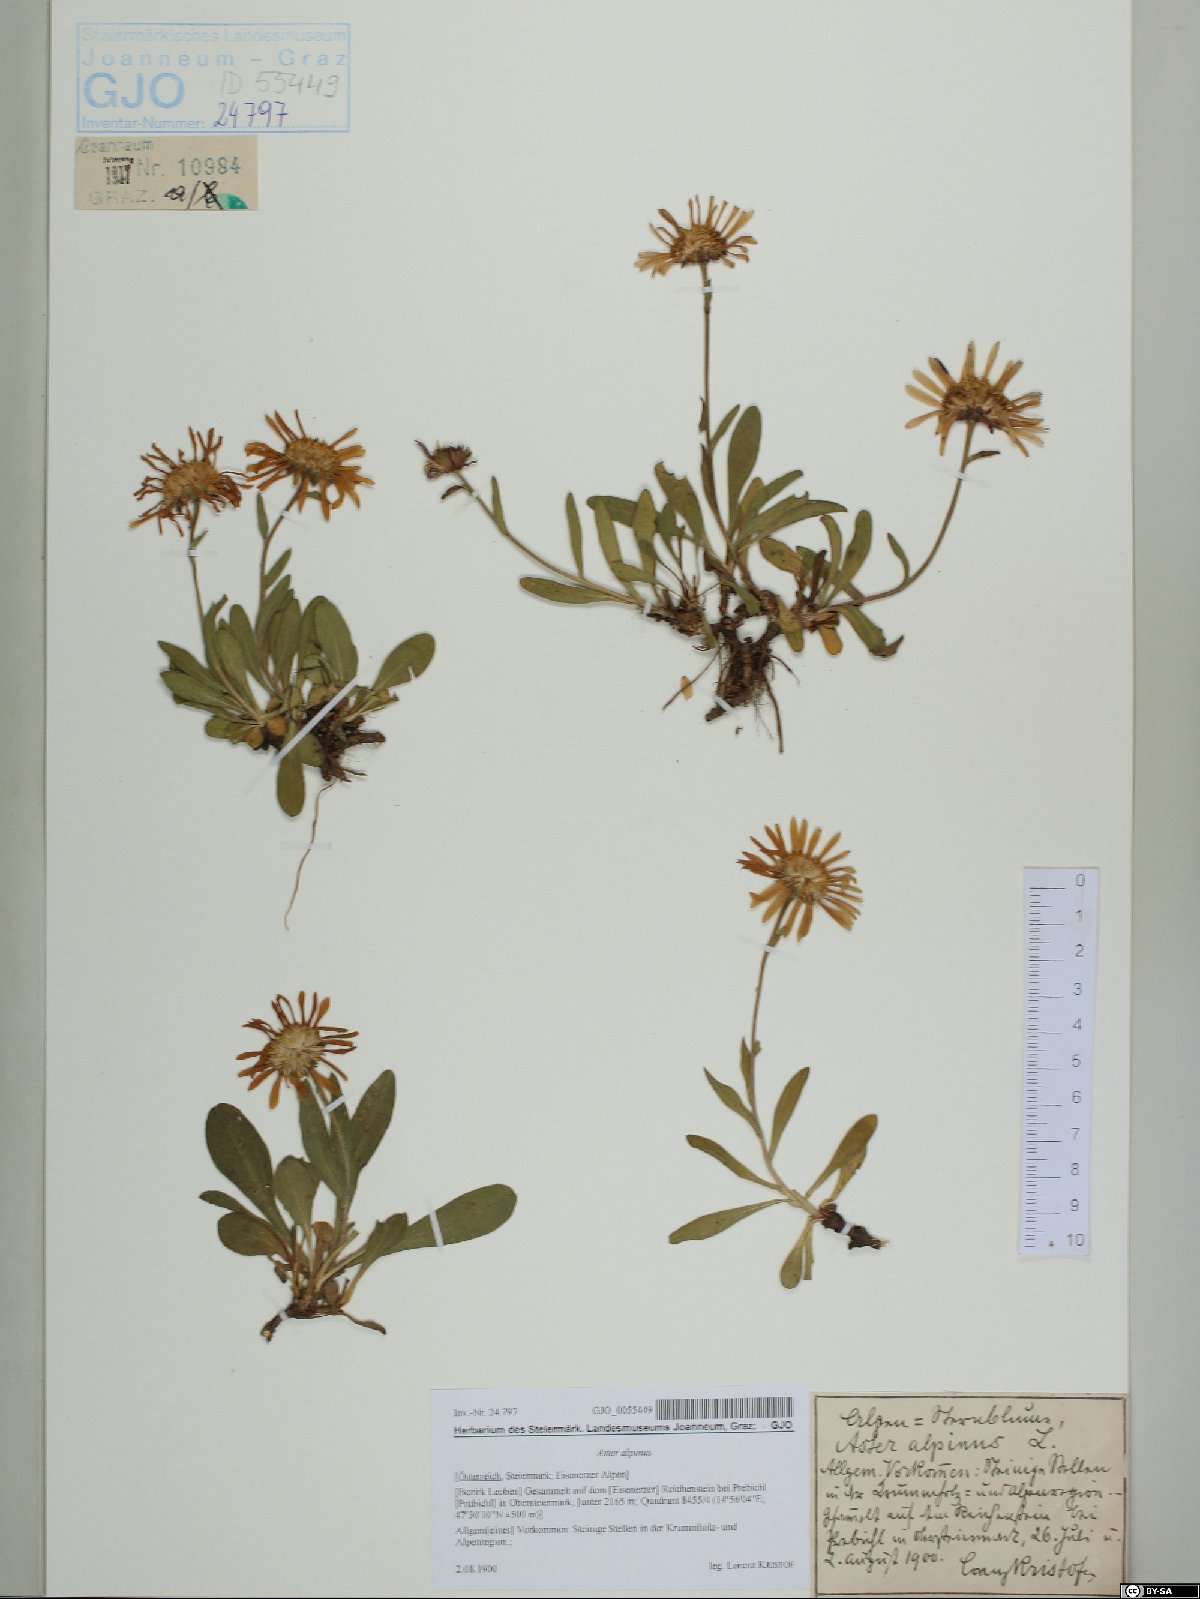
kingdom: Plantae
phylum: Tracheophyta
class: Magnoliopsida
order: Asterales
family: Asteraceae
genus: Aster
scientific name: Aster alpinus
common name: Alpine aster
